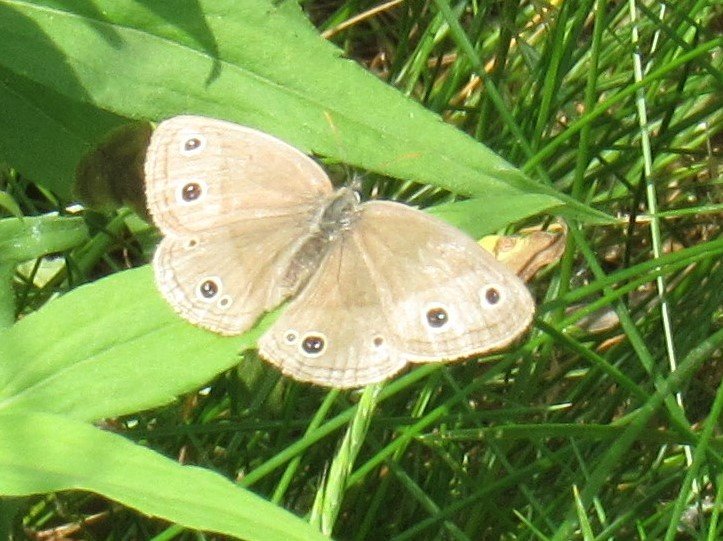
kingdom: Animalia
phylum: Arthropoda
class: Insecta
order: Lepidoptera
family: Nymphalidae
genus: Euptychia
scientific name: Euptychia cymela
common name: Little Wood Satyr
